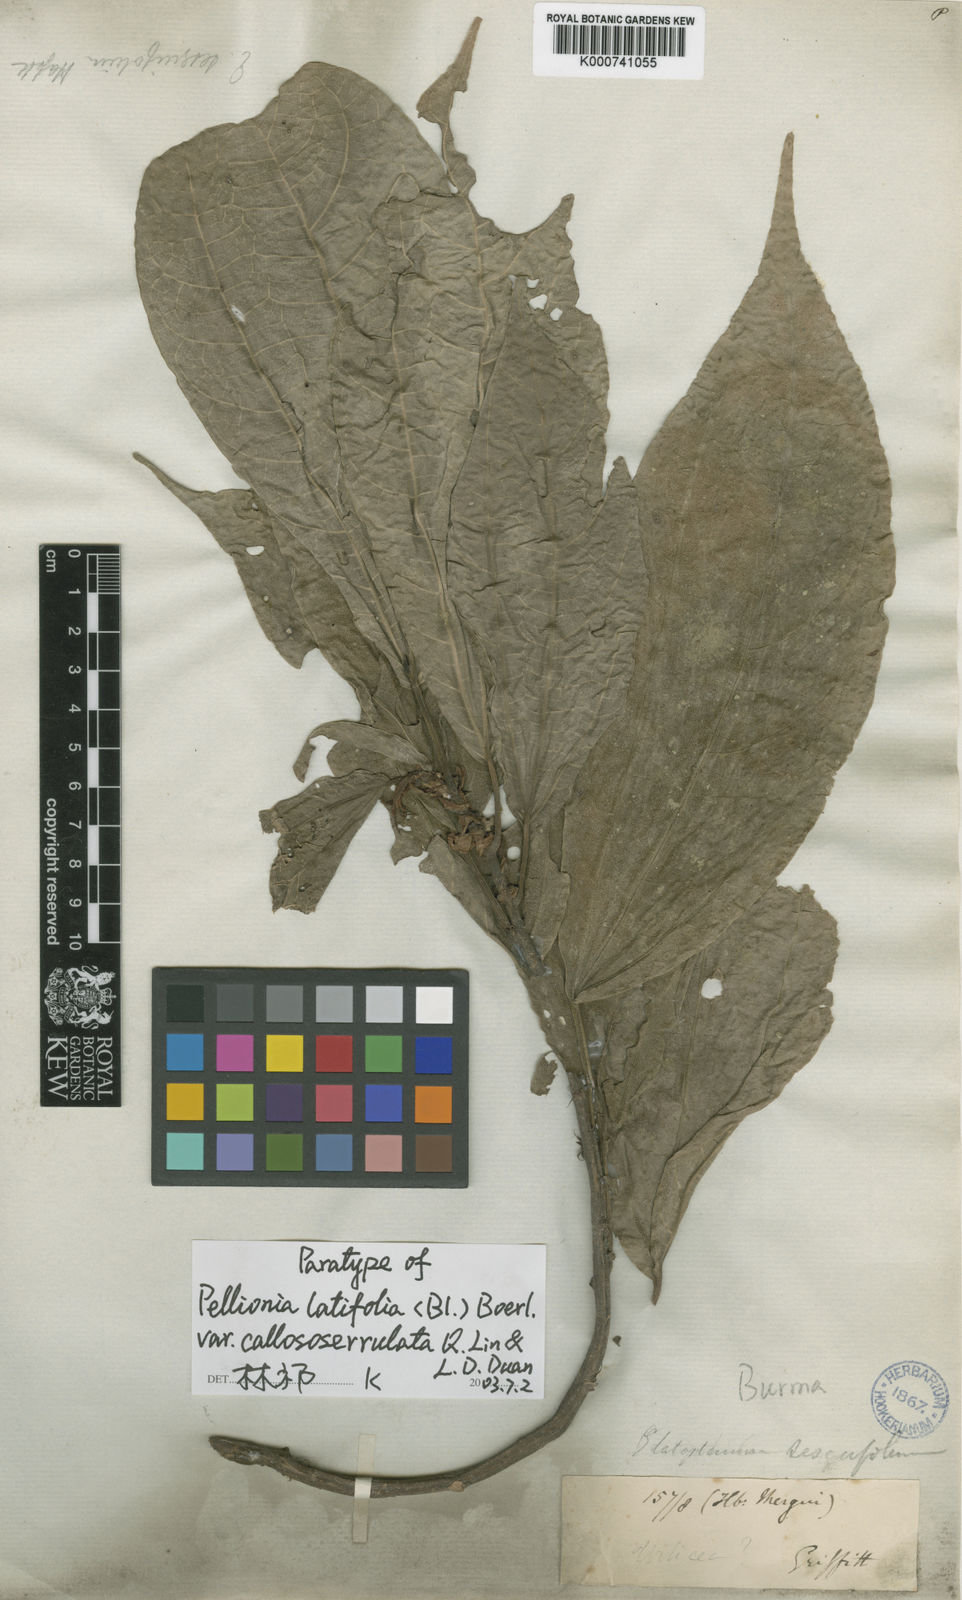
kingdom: Plantae
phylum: Tracheophyta
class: Magnoliopsida
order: Rosales
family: Urticaceae
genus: Elatostema
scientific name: Elatostema latifolium
